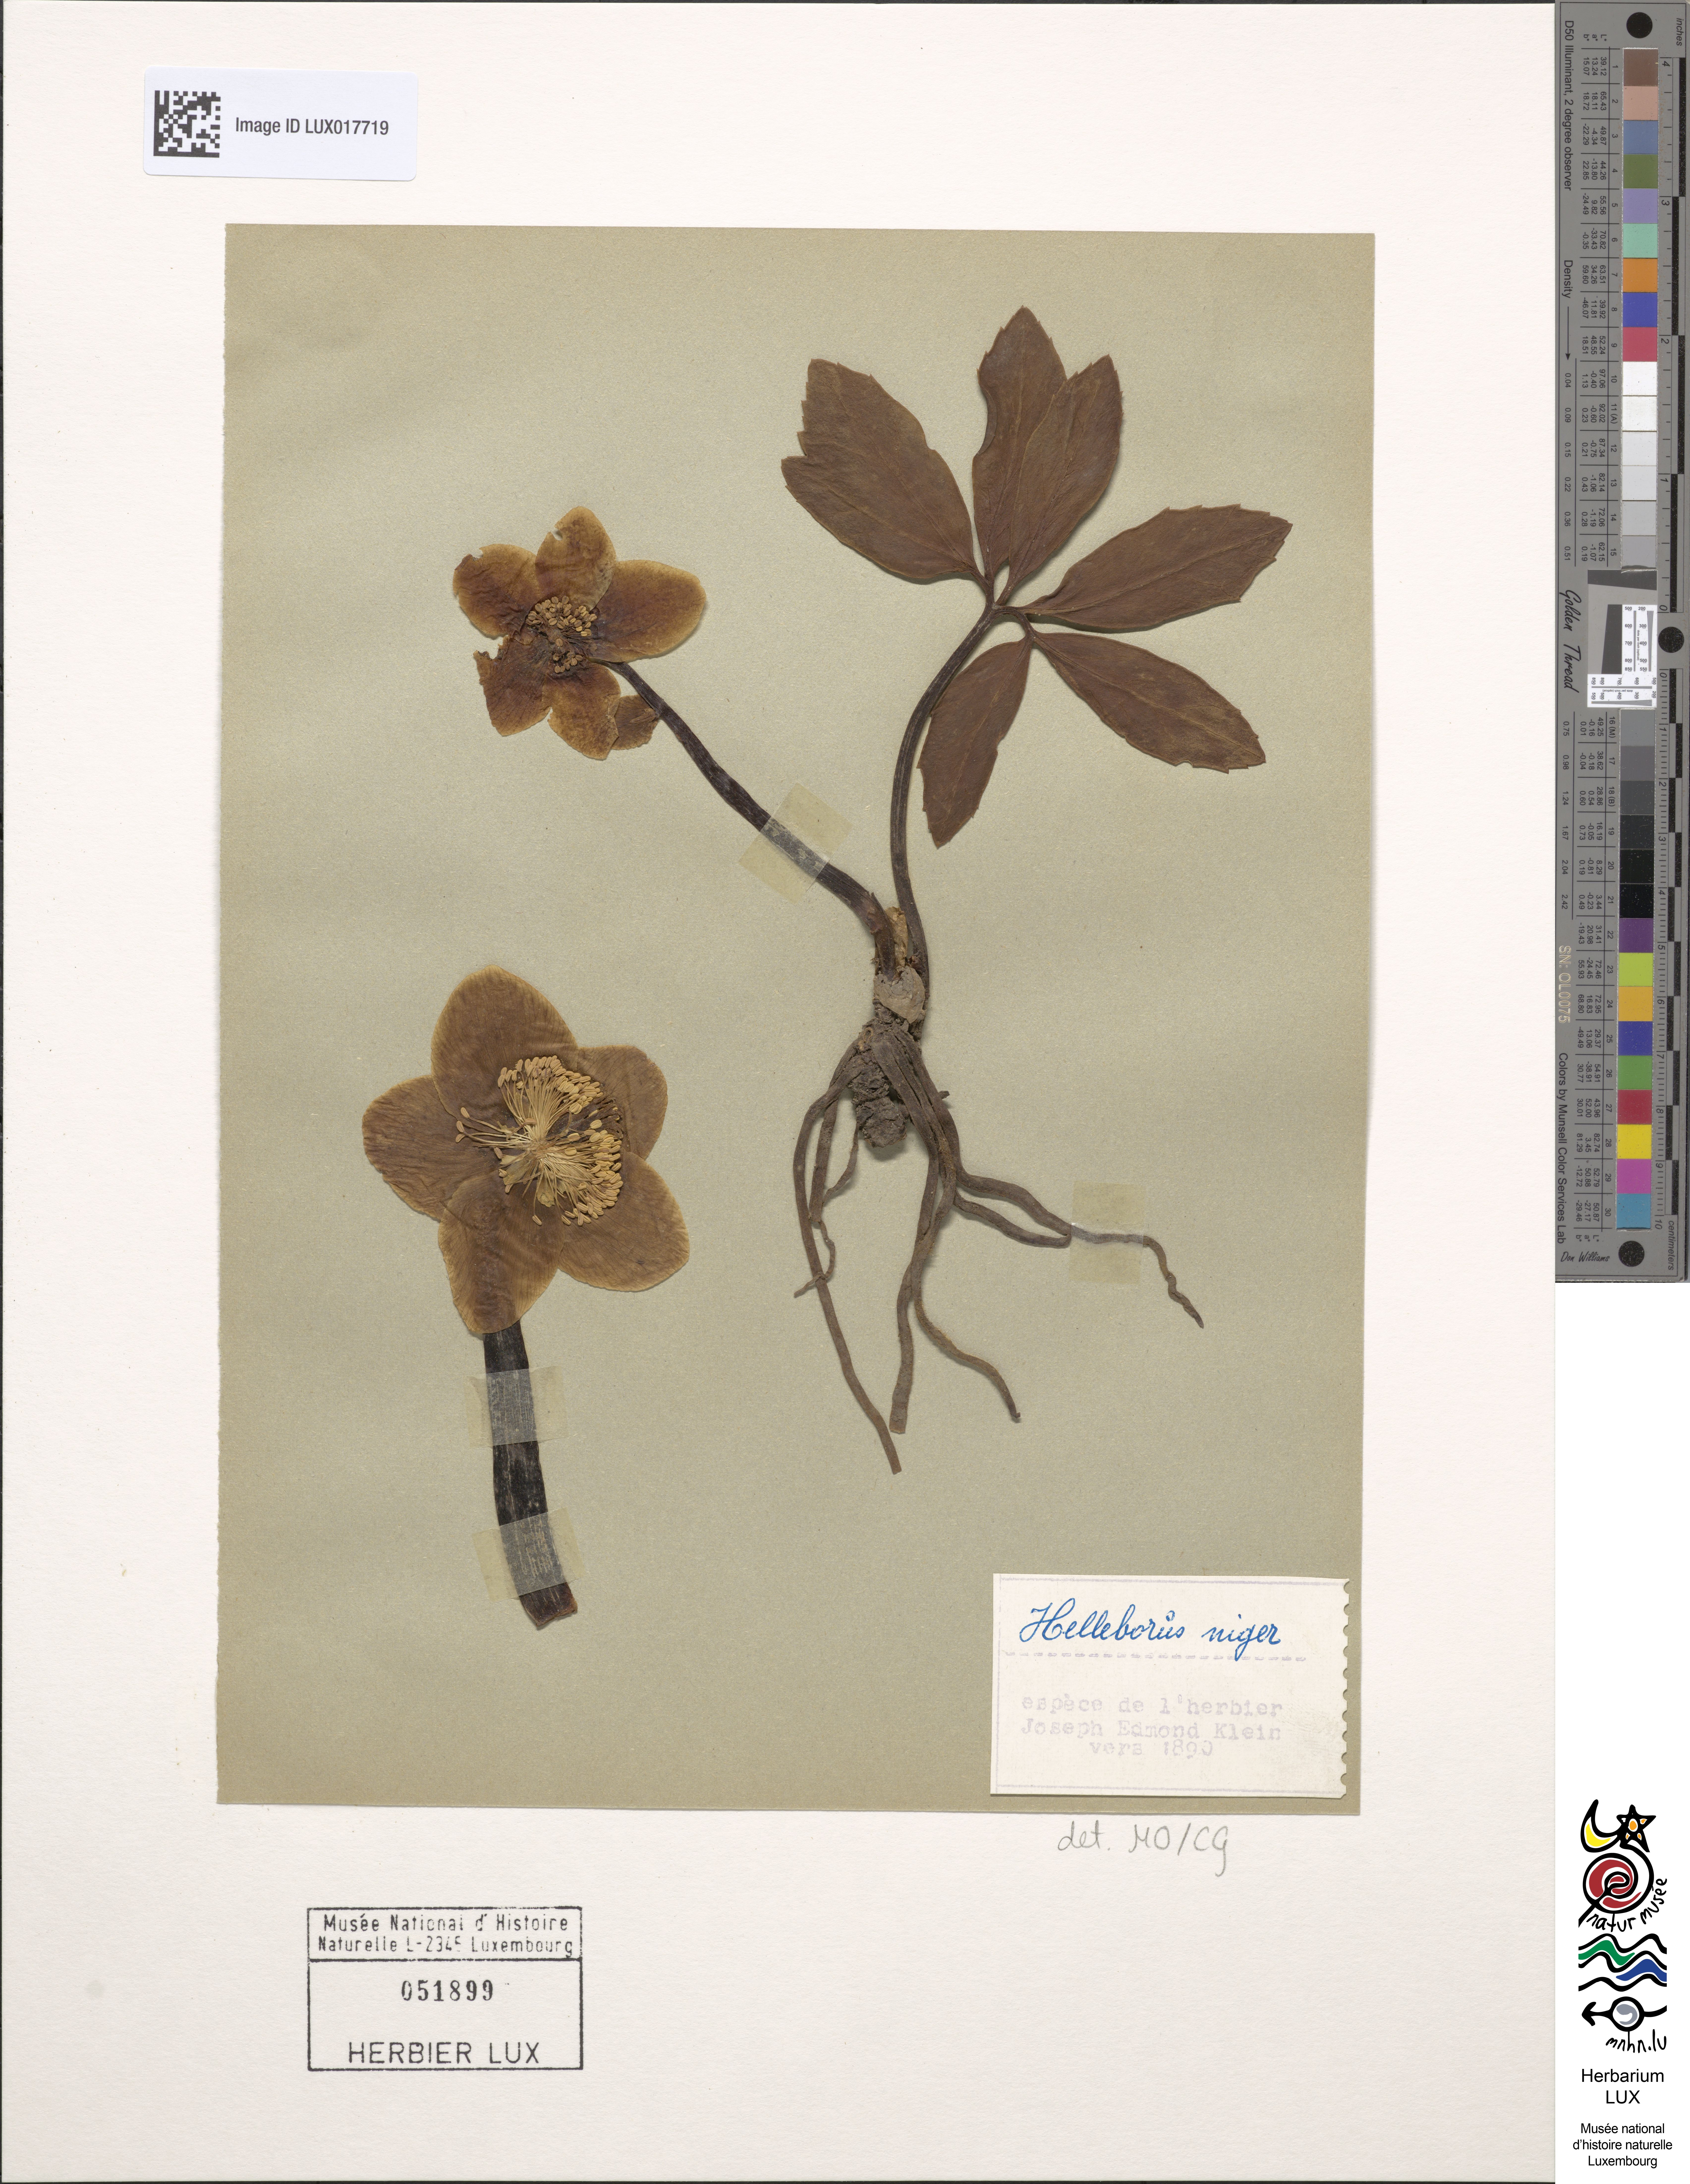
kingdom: Plantae
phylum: Tracheophyta
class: Magnoliopsida
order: Ranunculales
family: Ranunculaceae
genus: Helleborus
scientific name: Helleborus niger
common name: Black hellebore
